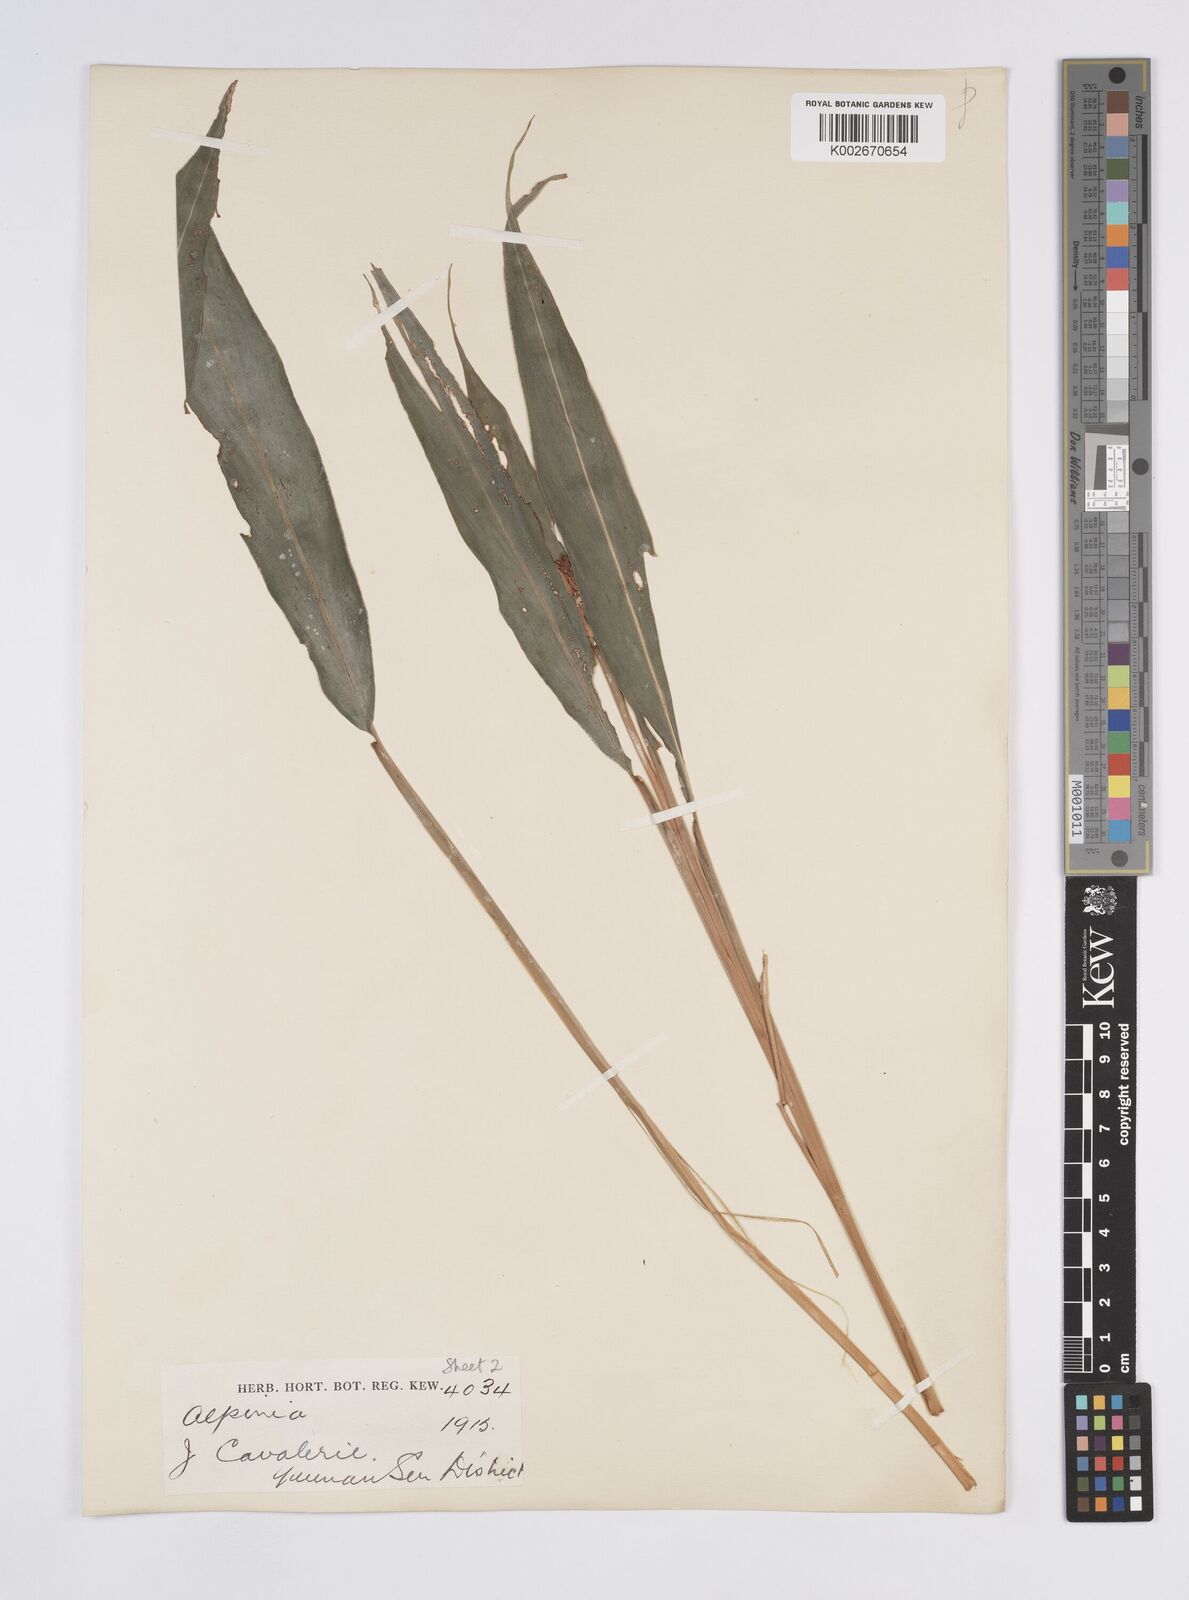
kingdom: Plantae
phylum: Tracheophyta
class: Liliopsida
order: Zingiberales
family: Zingiberaceae
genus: Alpinia
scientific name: Alpinia
